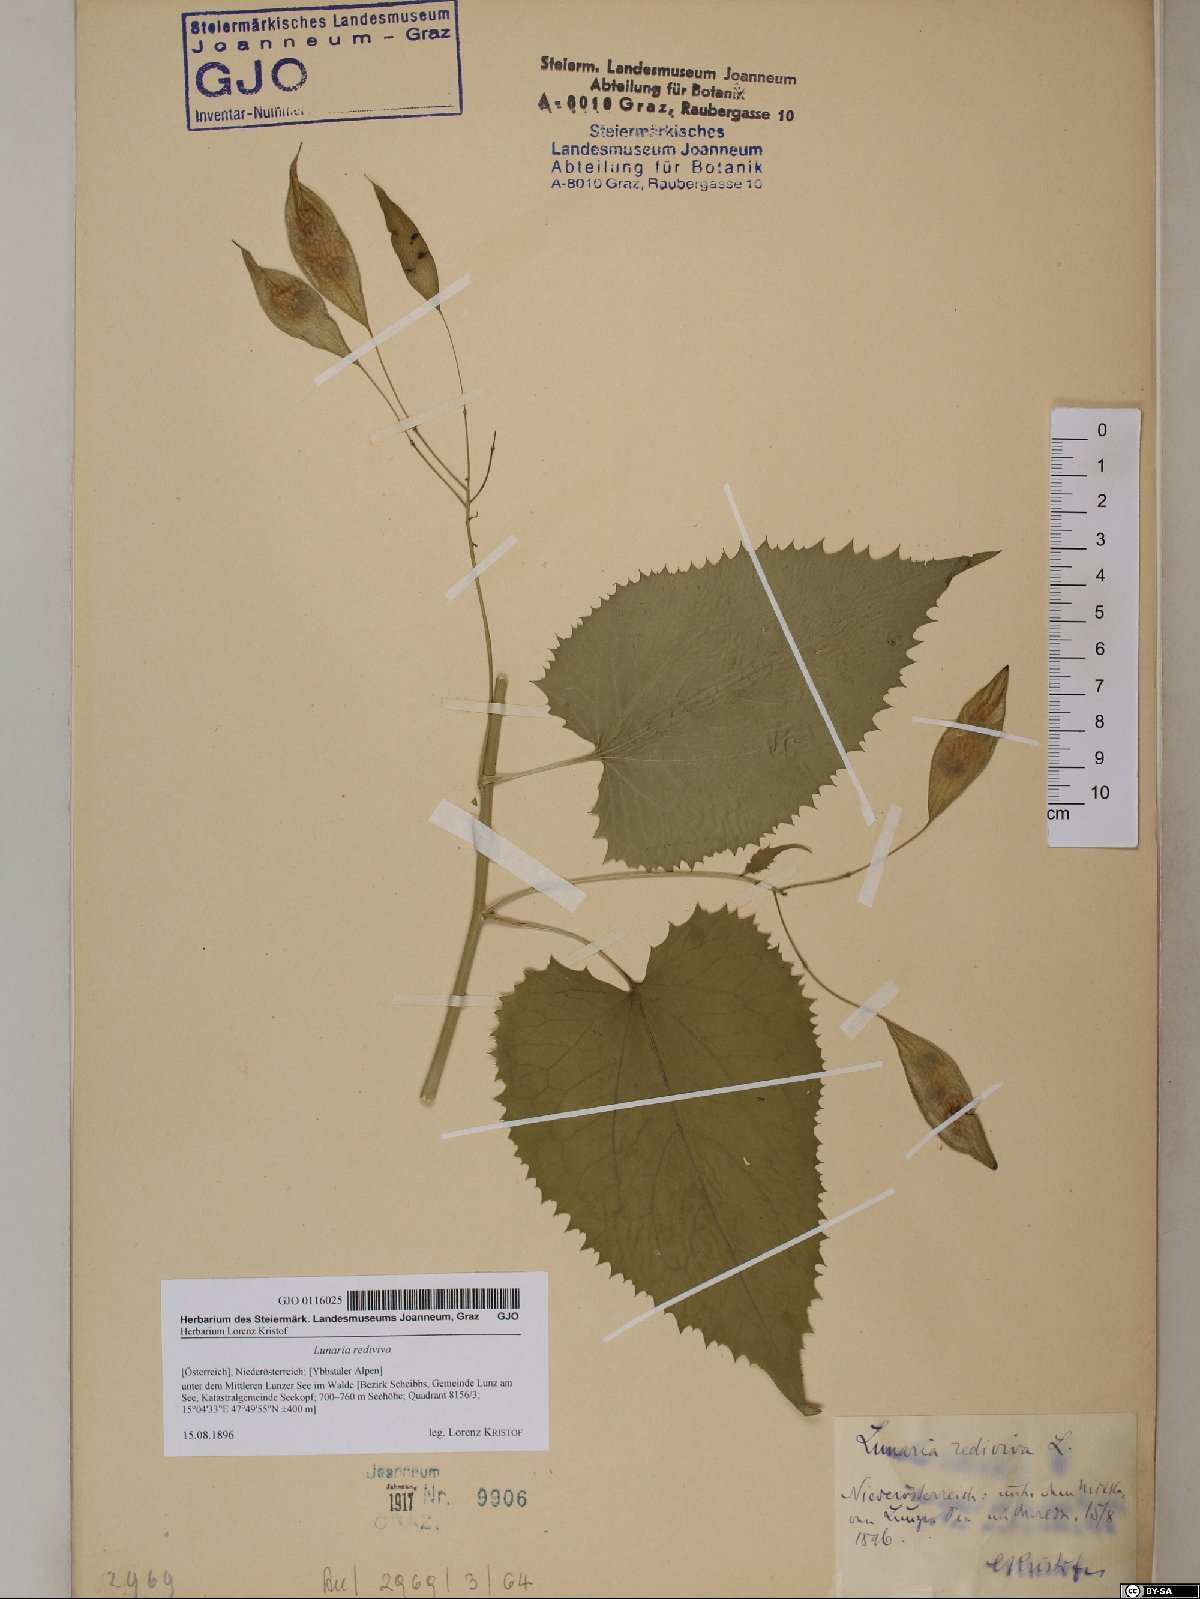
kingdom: Plantae
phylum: Tracheophyta
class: Magnoliopsida
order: Brassicales
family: Brassicaceae
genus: Lunaria
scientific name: Lunaria rediviva
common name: Perennial honesty
